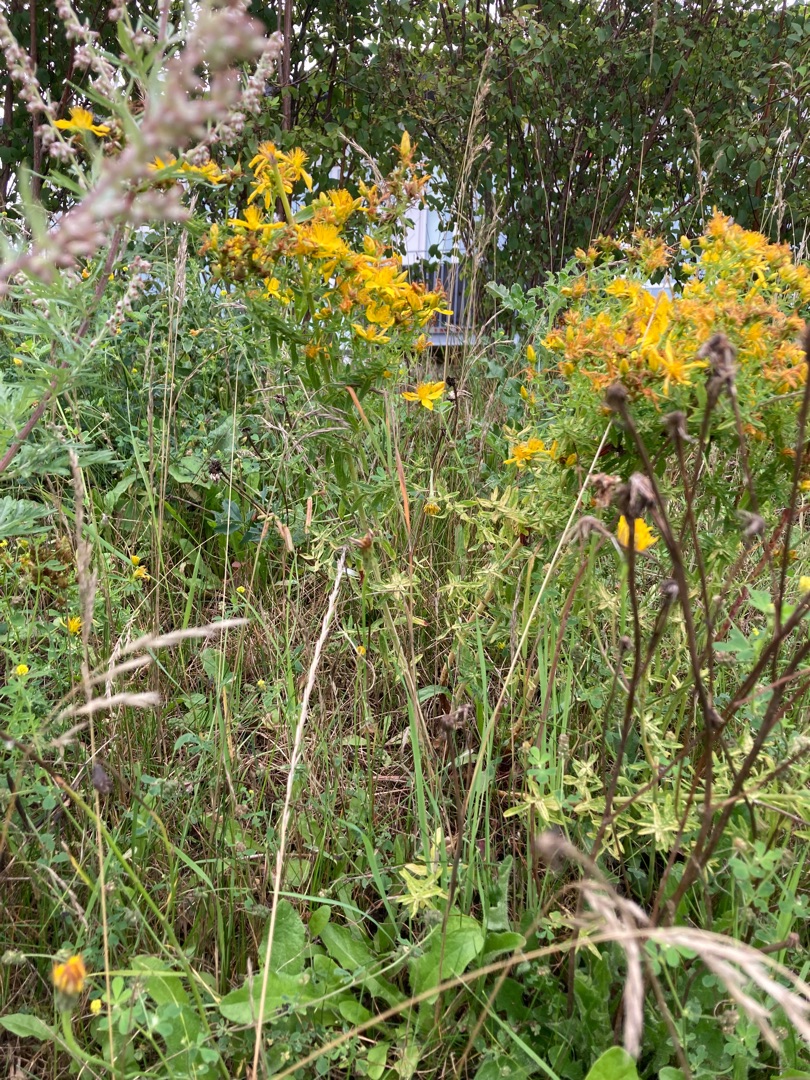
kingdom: Plantae
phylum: Tracheophyta
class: Magnoliopsida
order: Malpighiales
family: Hypericaceae
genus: Hypericum
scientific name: Hypericum perforatum
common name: Prikbladet perikon
